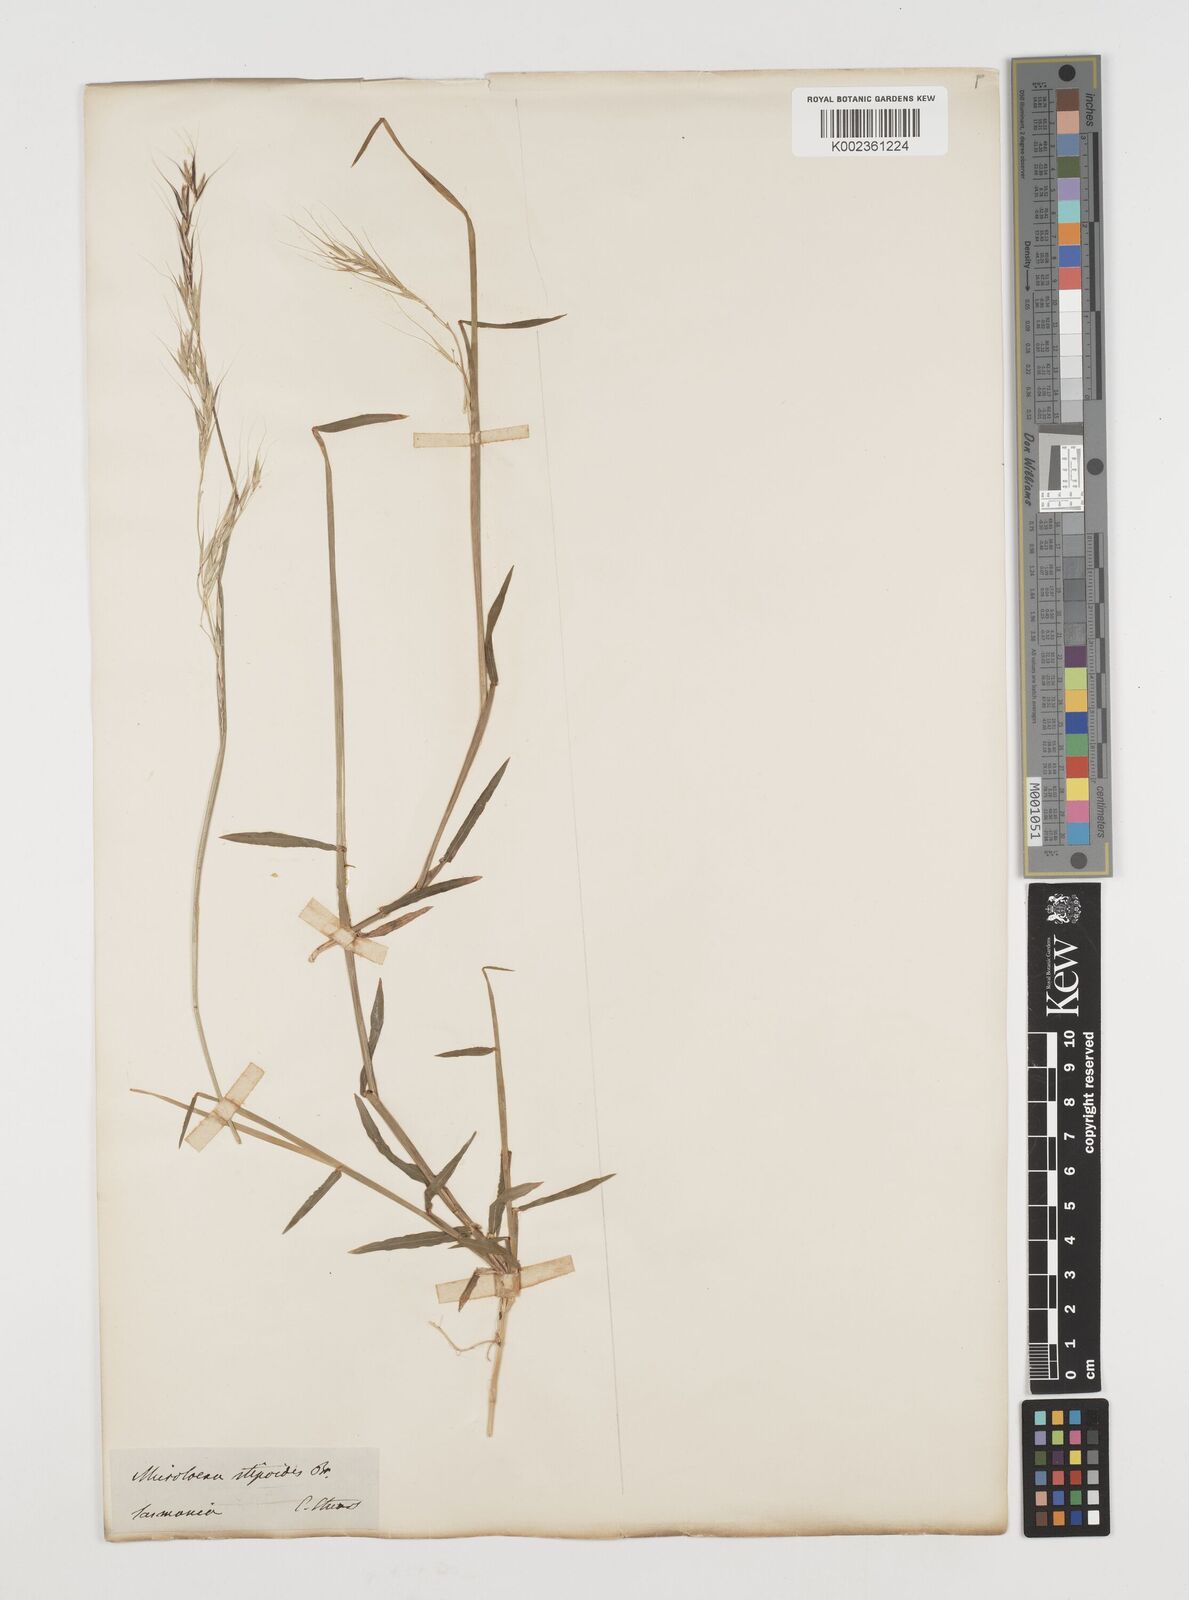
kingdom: Plantae
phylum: Tracheophyta
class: Liliopsida
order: Poales
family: Poaceae
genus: Microlaena
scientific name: Microlaena stipoides
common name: Meadow ricegrass
